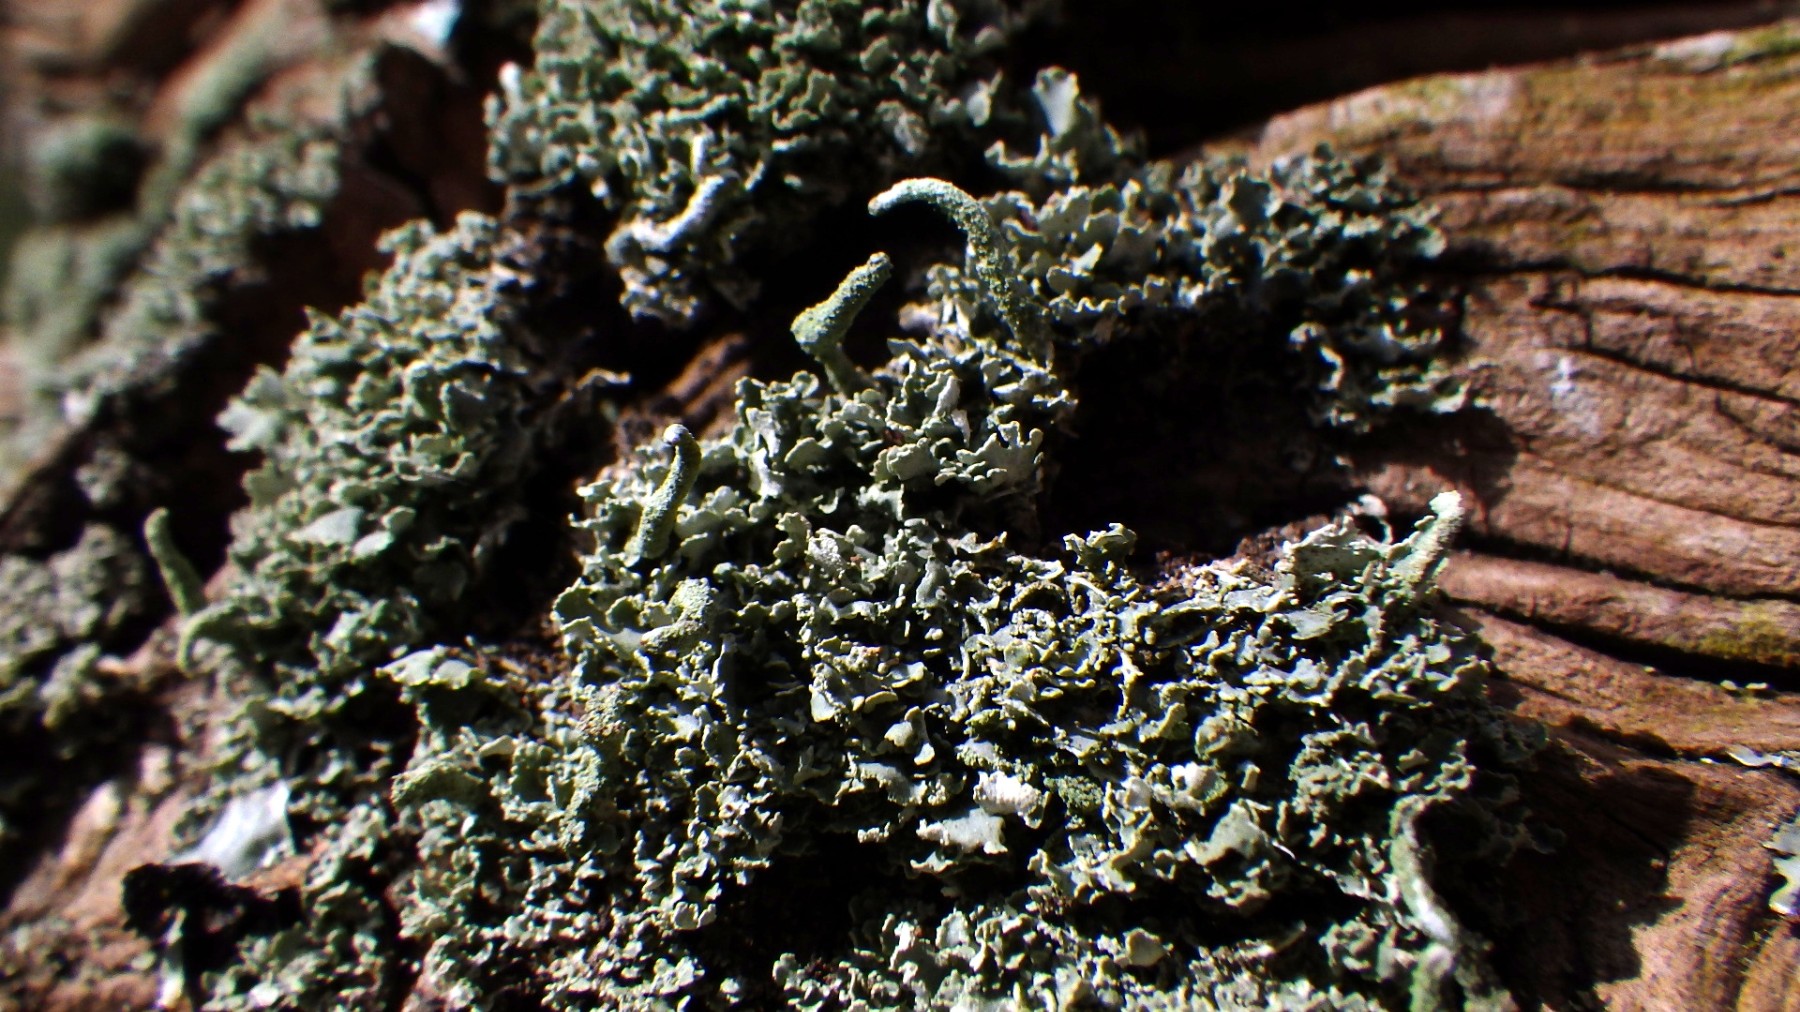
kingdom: Fungi
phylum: Ascomycota
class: Lecanoromycetes
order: Lecanorales
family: Cladoniaceae
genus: Cladonia
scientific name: Cladonia coniocraea
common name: træfods-bægerlav
